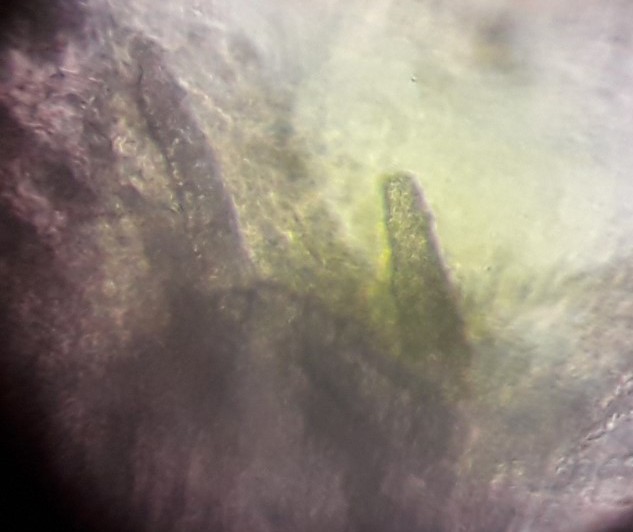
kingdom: Fungi
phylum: Basidiomycota
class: Agaricomycetes
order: Hymenochaetales
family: Rickenellaceae
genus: Peniophorella
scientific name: Peniophorella pubera
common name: dunet kalkskind
